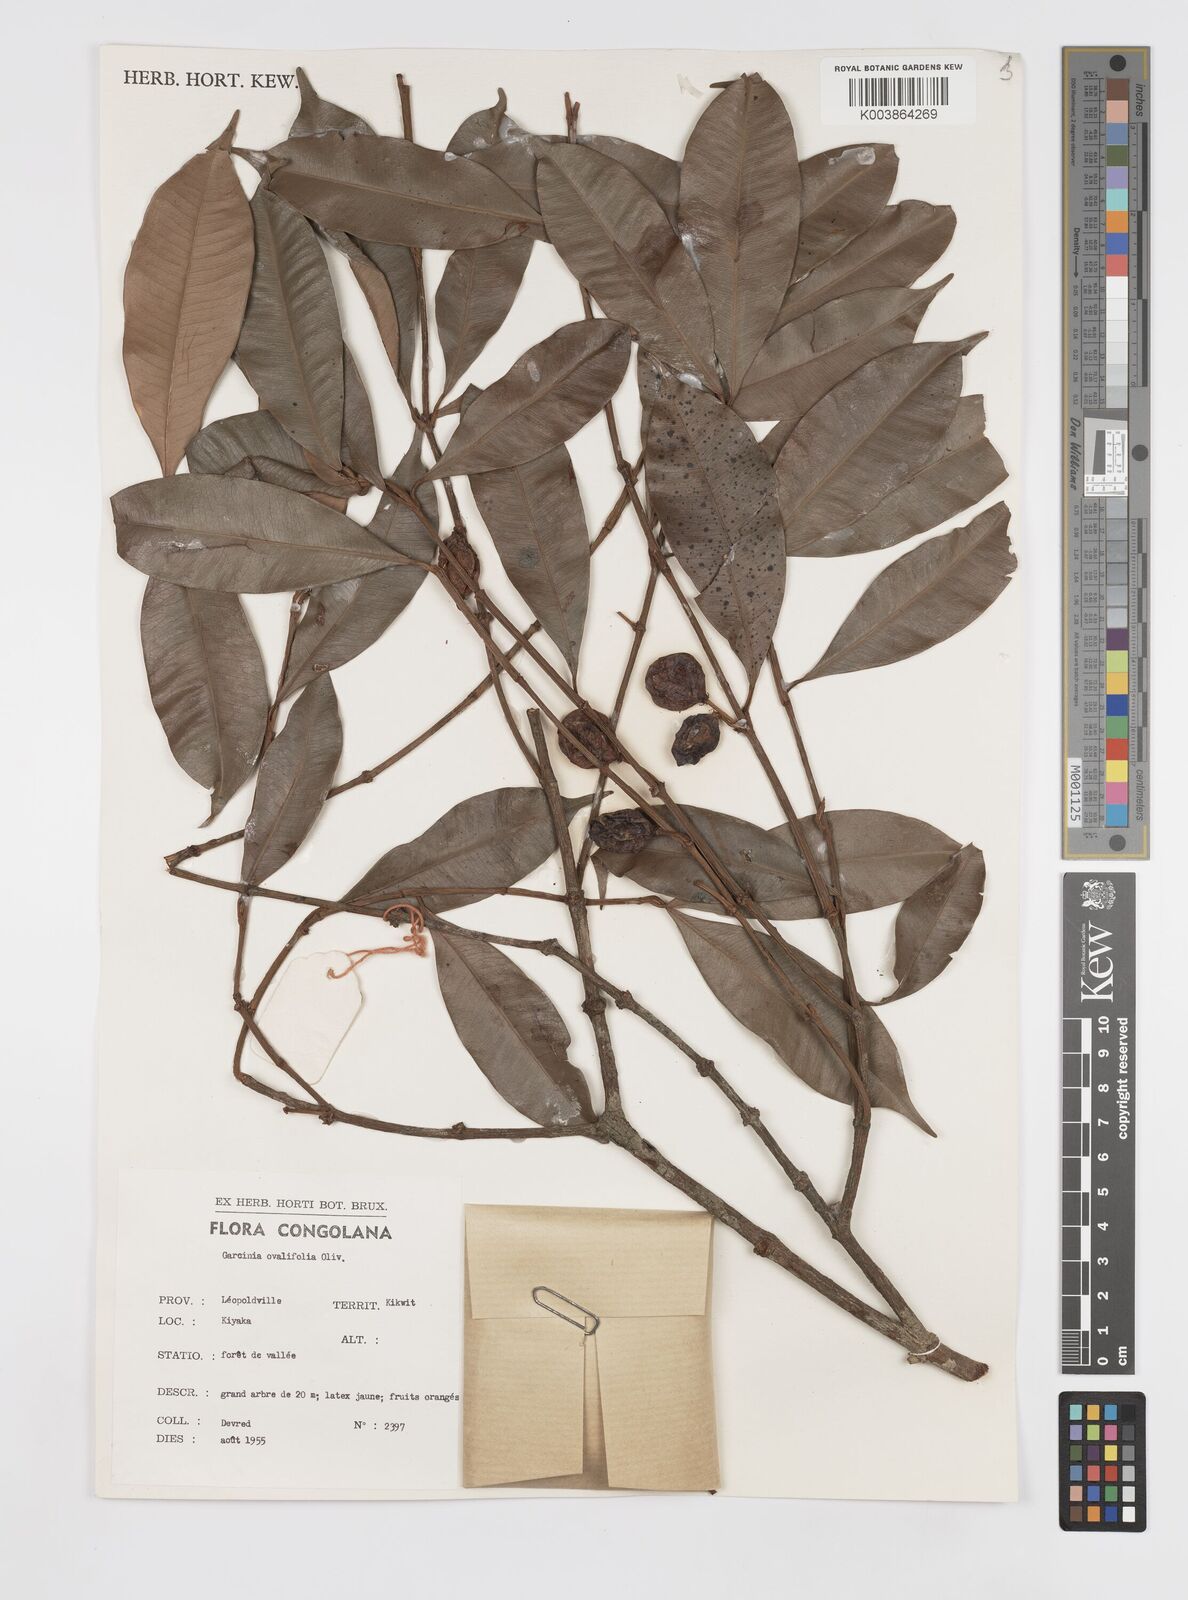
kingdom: Plantae
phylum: Tracheophyta
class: Magnoliopsida
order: Malpighiales
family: Clusiaceae
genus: Garcinia
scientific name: Garcinia ovalifolia
